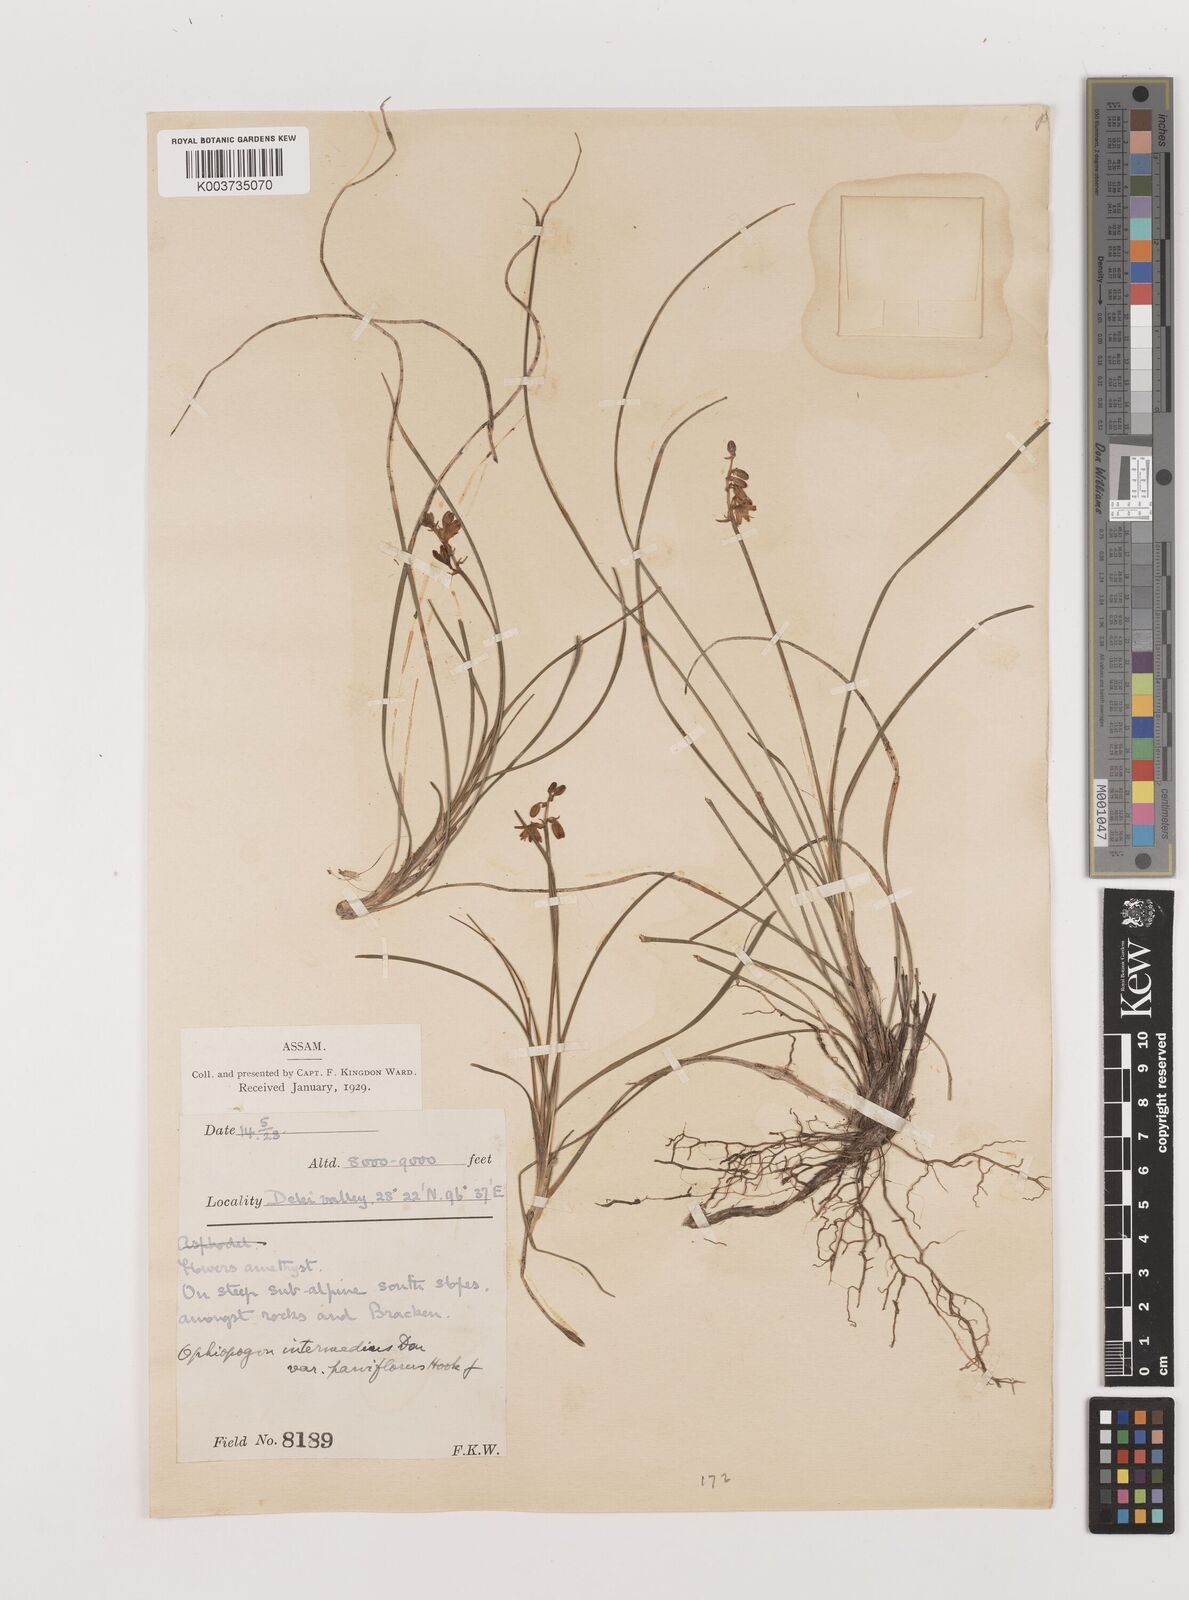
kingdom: Plantae
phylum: Tracheophyta
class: Liliopsida
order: Asparagales
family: Asparagaceae
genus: Ophiopogon
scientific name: Ophiopogon bodinieri
